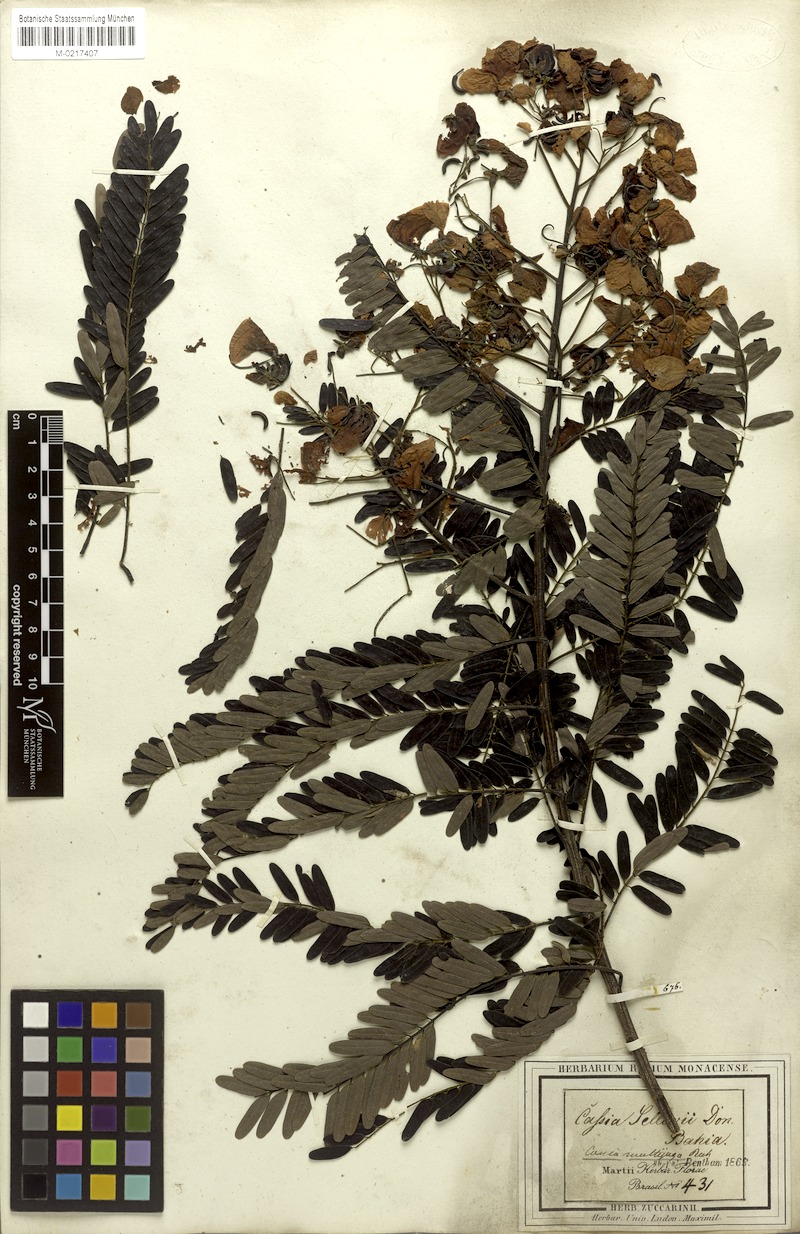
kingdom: Plantae
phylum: Tracheophyta
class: Magnoliopsida
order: Fabales
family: Fabaceae
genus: Senna
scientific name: Senna multijuga
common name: False sicklepod
